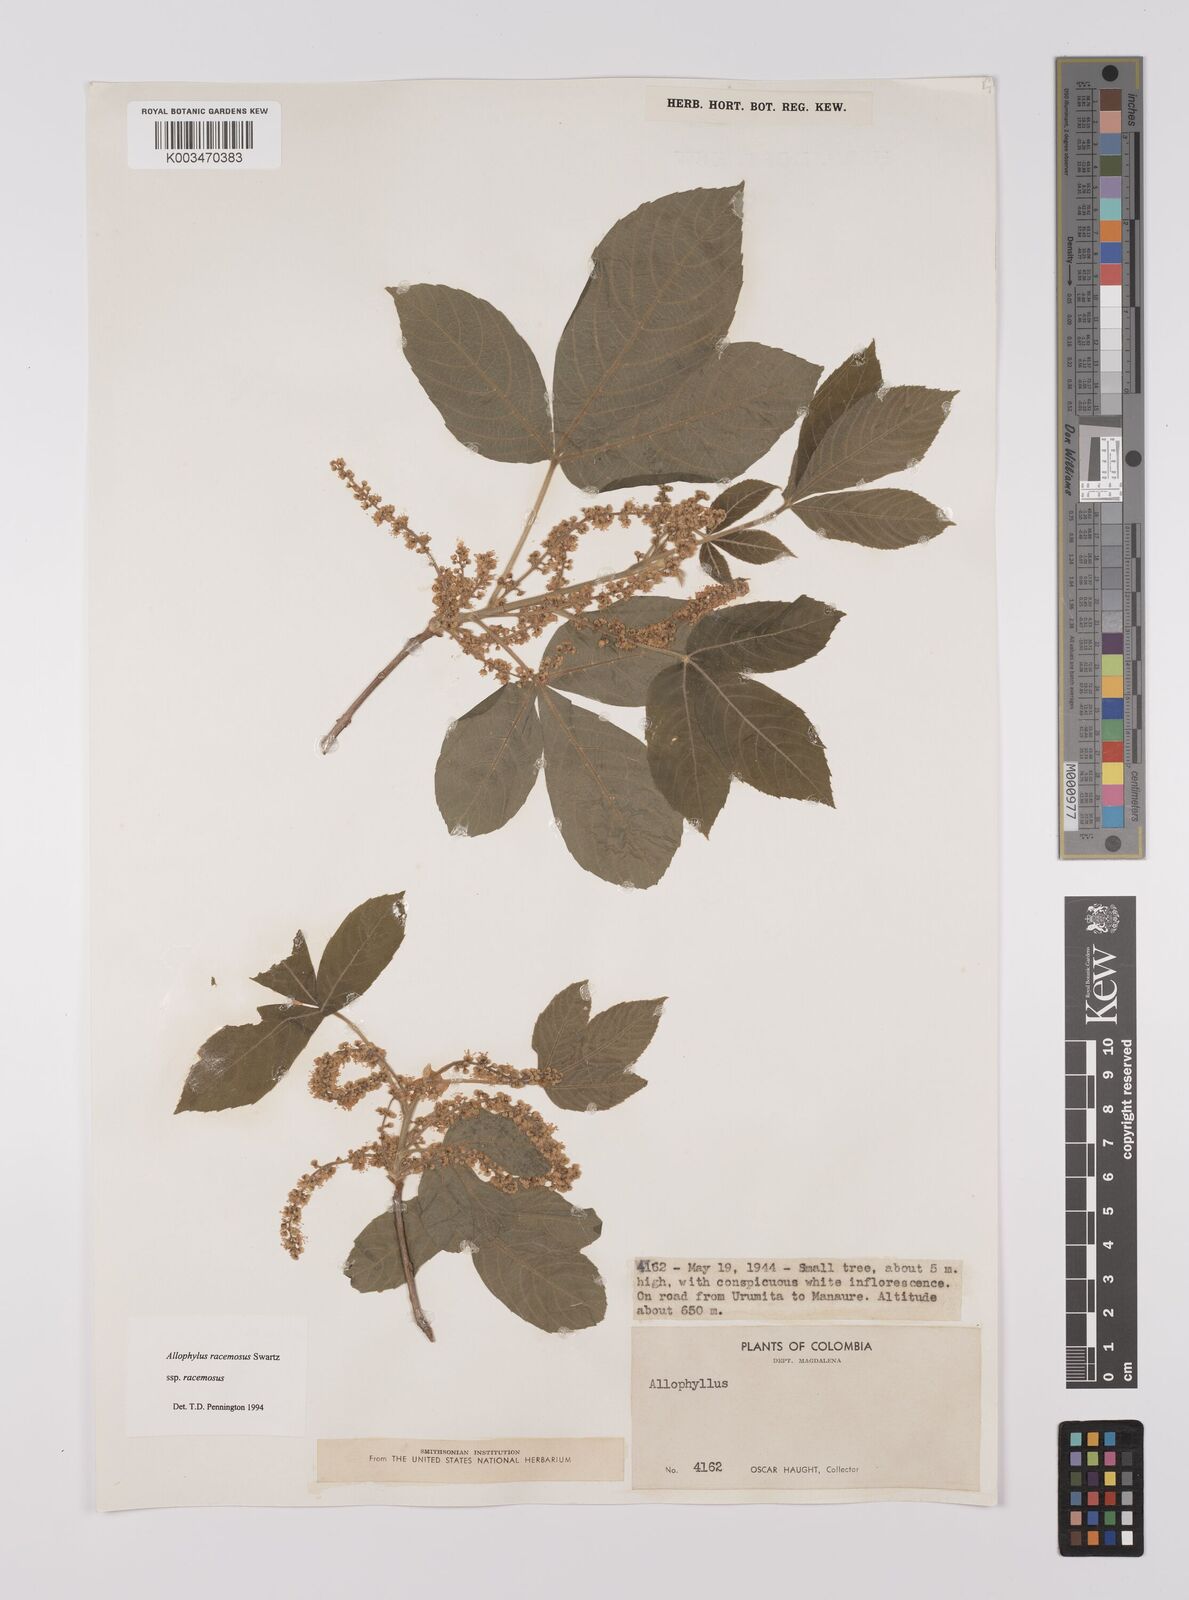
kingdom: Plantae
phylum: Tracheophyta
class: Magnoliopsida
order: Sapindales
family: Sapindaceae
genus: Allophylus
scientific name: Allophylus
